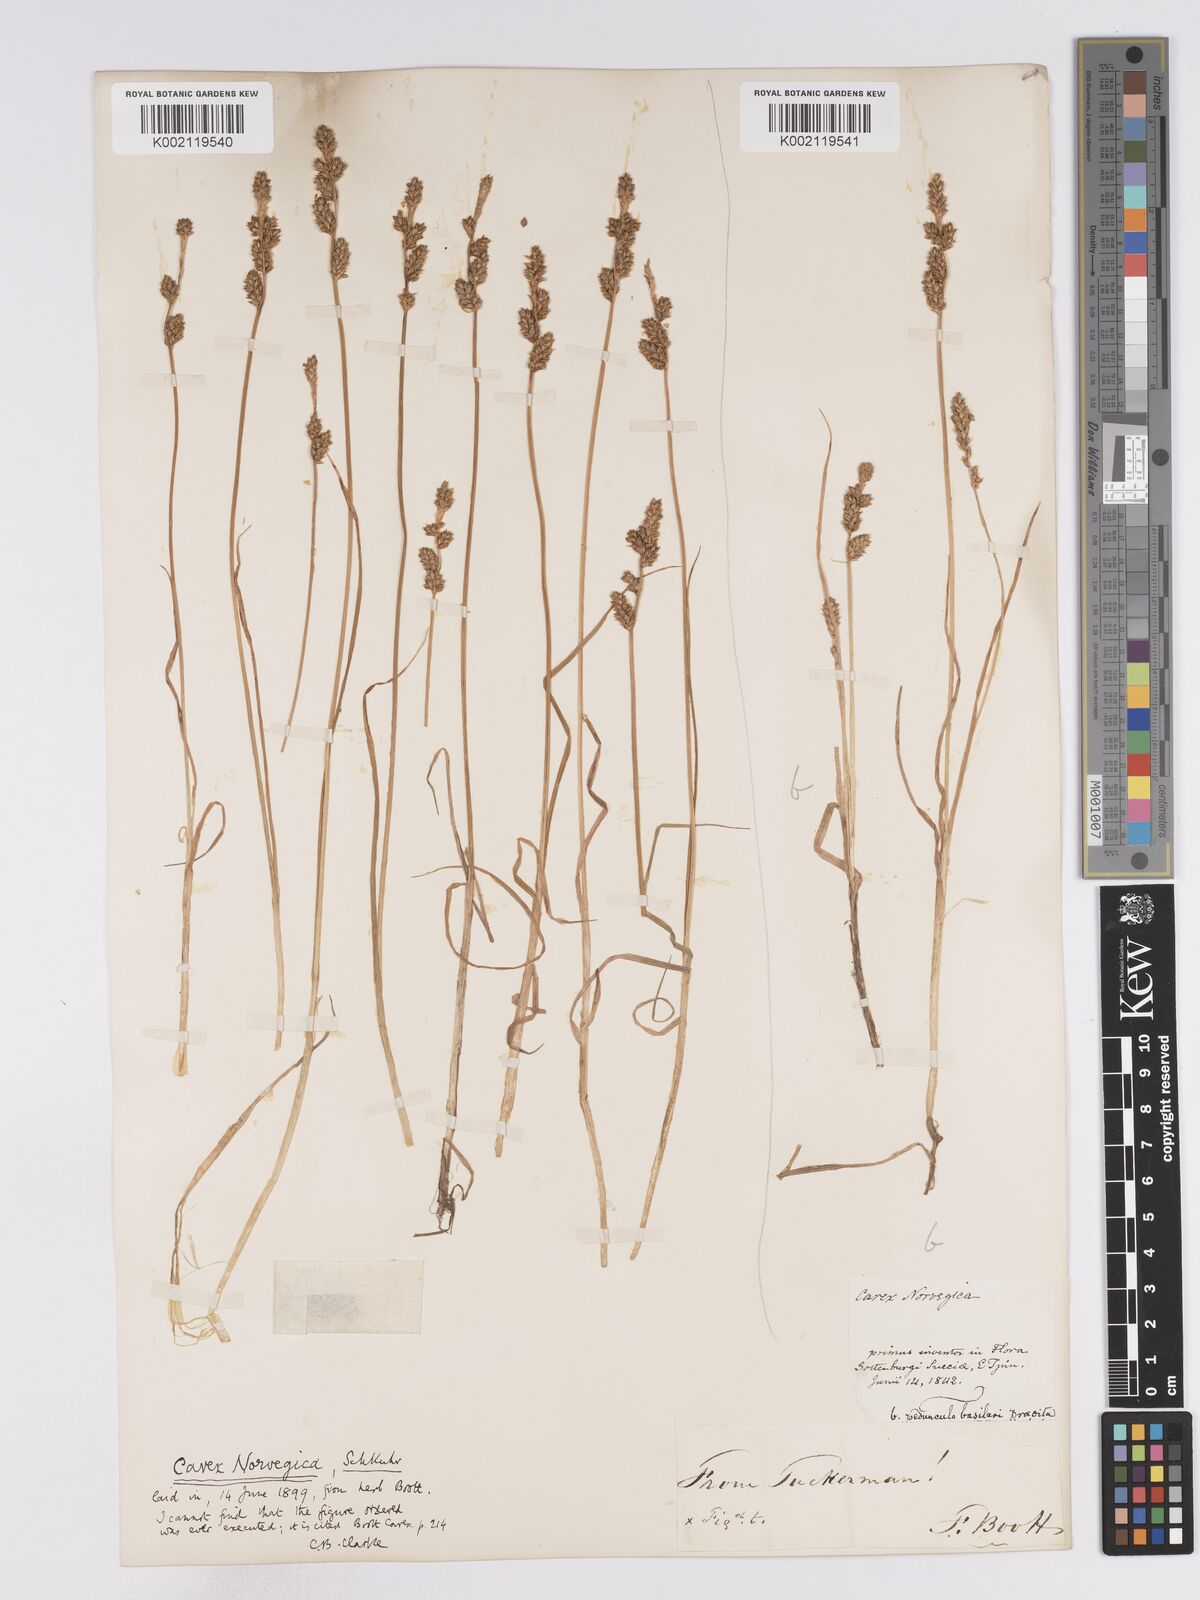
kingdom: Plantae
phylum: Tracheophyta
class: Liliopsida
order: Poales
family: Cyperaceae
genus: Carex
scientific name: Carex mackenziei
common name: Mackenzie's sedge
